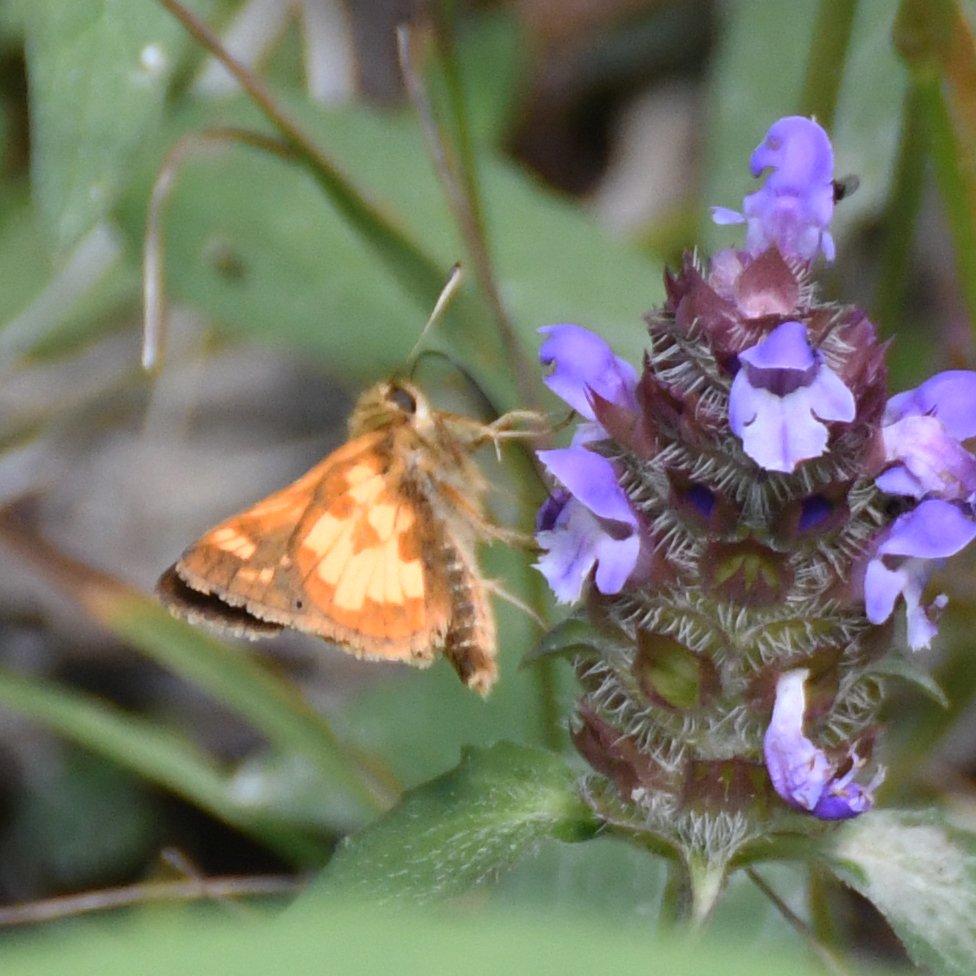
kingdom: Animalia
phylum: Arthropoda
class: Insecta
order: Lepidoptera
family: Hesperiidae
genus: Polites
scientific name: Polites coras
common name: Peck's Skipper
